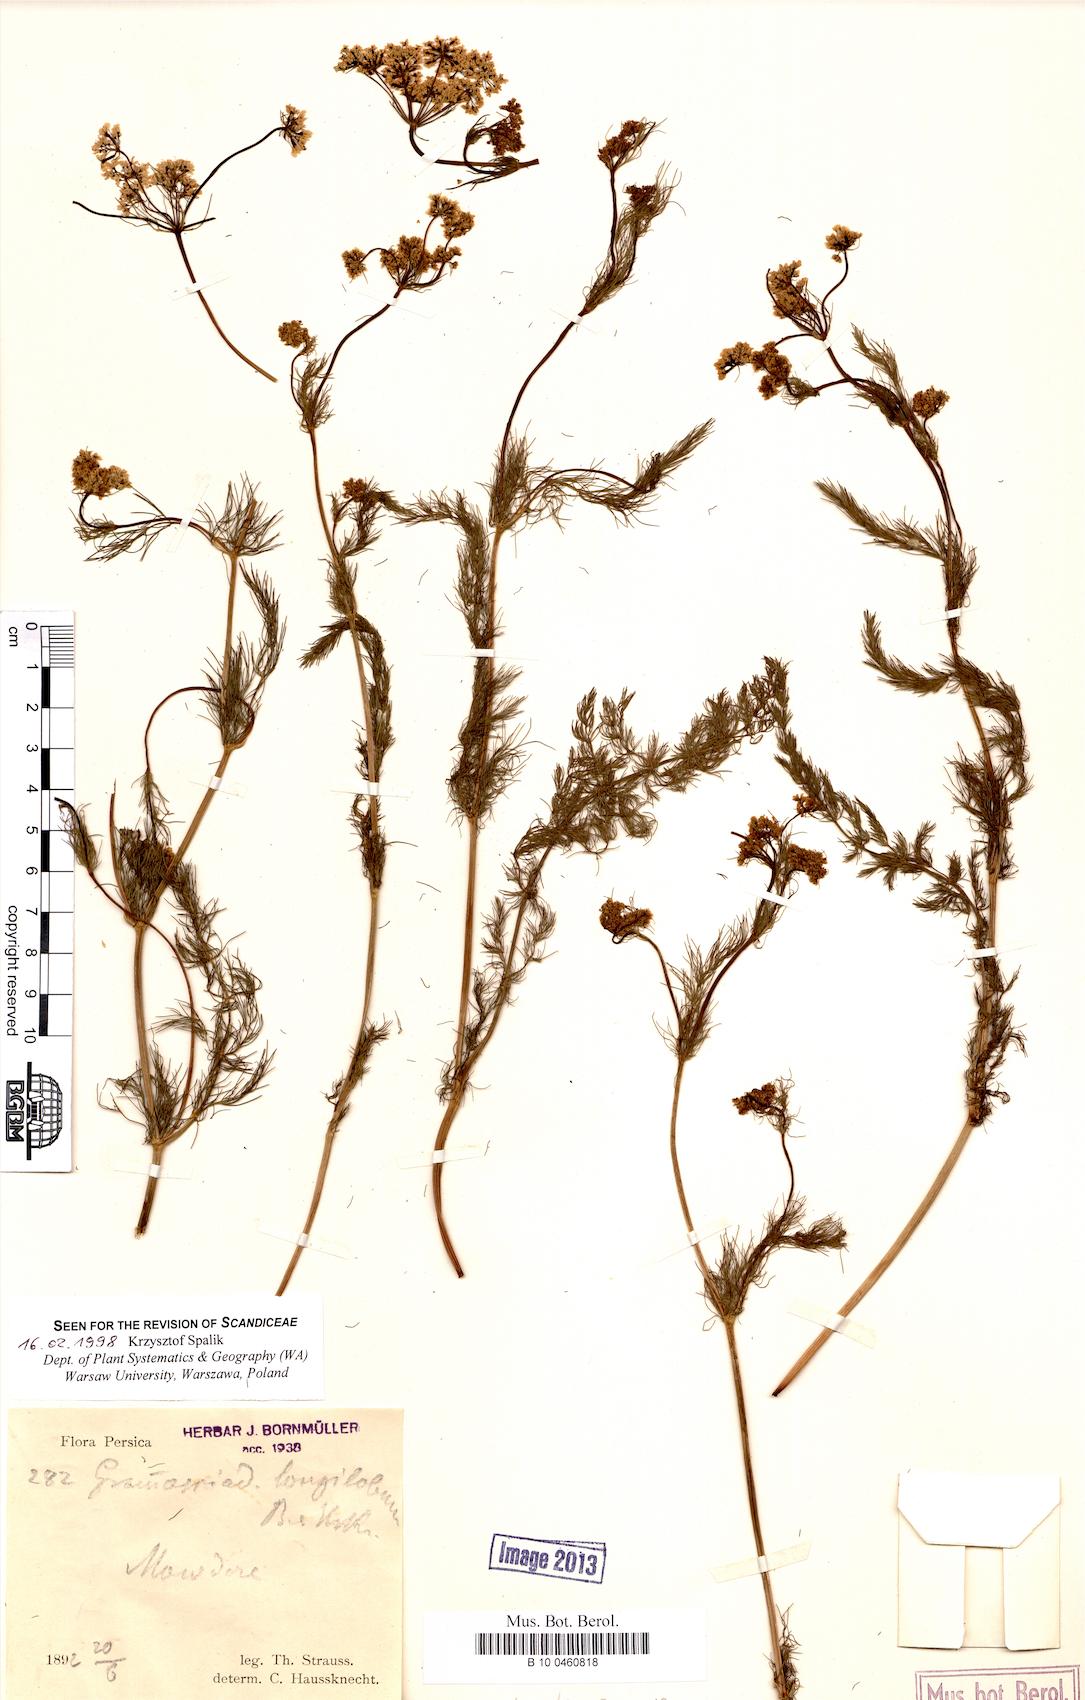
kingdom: Plantae
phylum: Tracheophyta
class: Magnoliopsida
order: Apiales
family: Apiaceae
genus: Grammosciadium
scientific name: Grammosciadium scabridum
